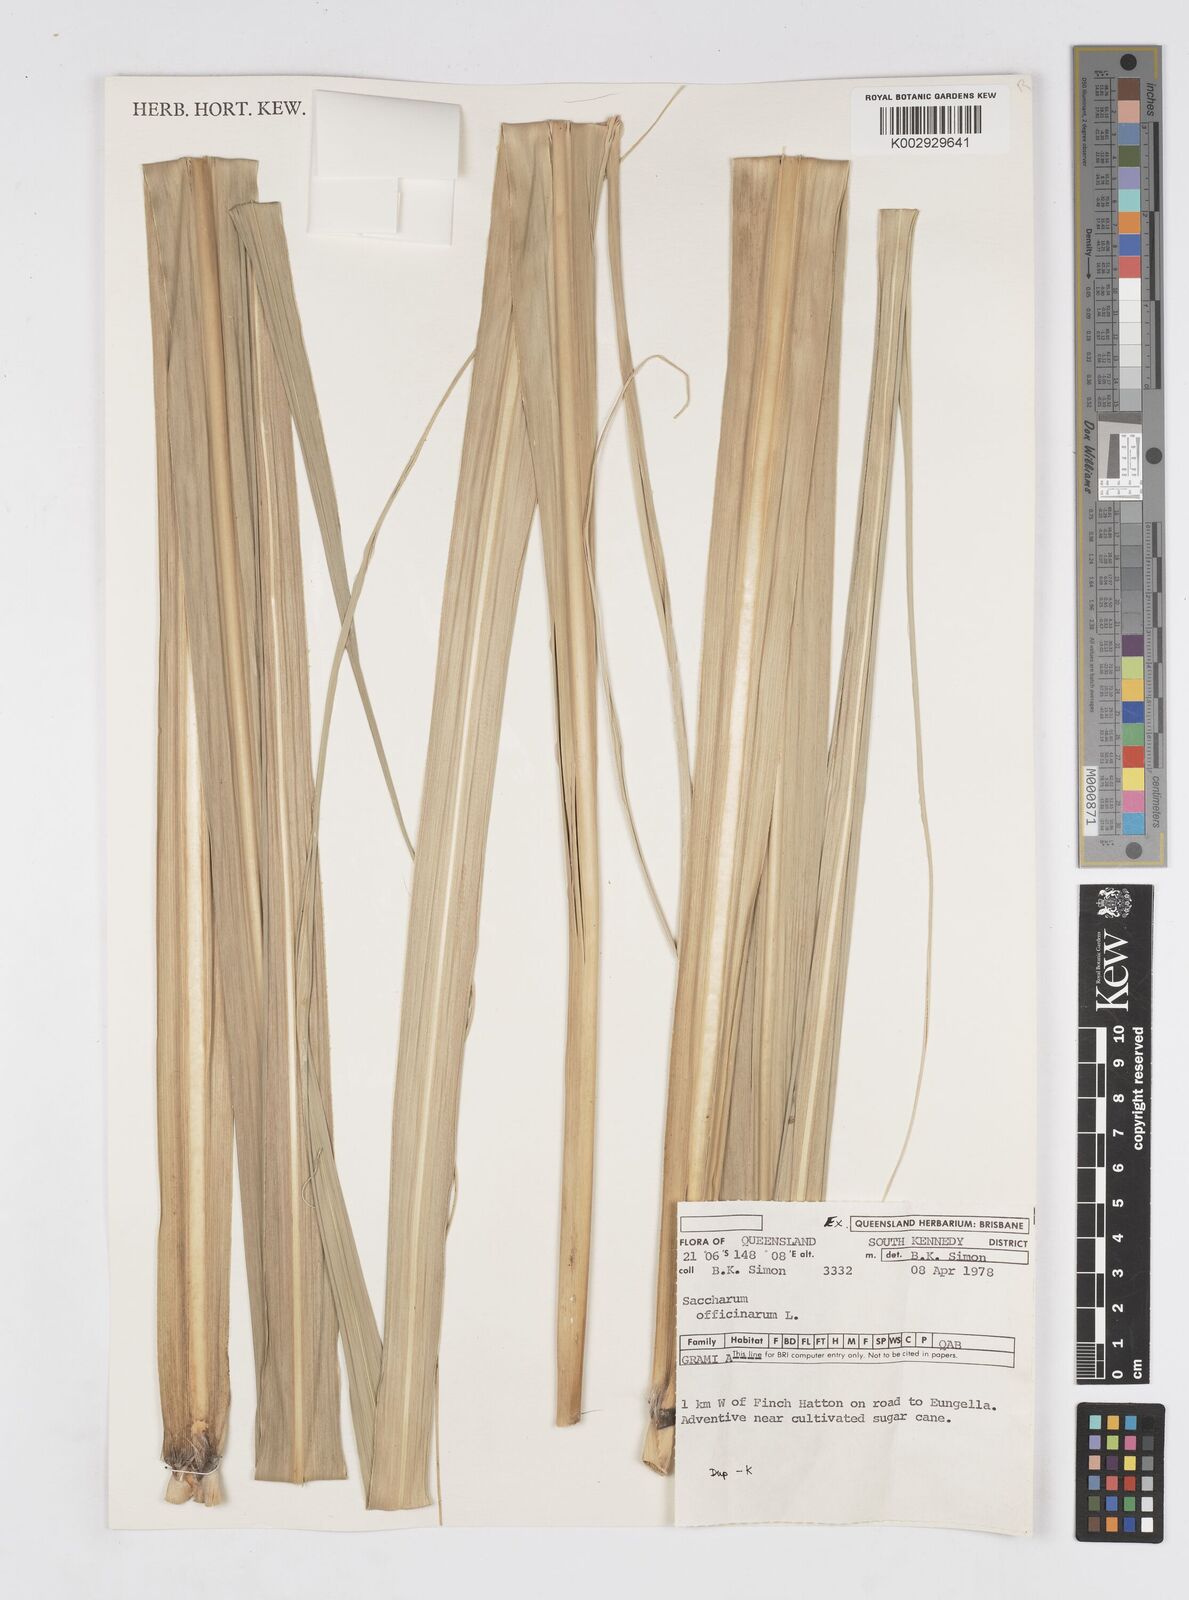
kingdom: Plantae
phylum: Tracheophyta
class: Liliopsida
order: Poales
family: Poaceae
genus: Saccharum
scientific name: Saccharum officinarum
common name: Sugarcane
